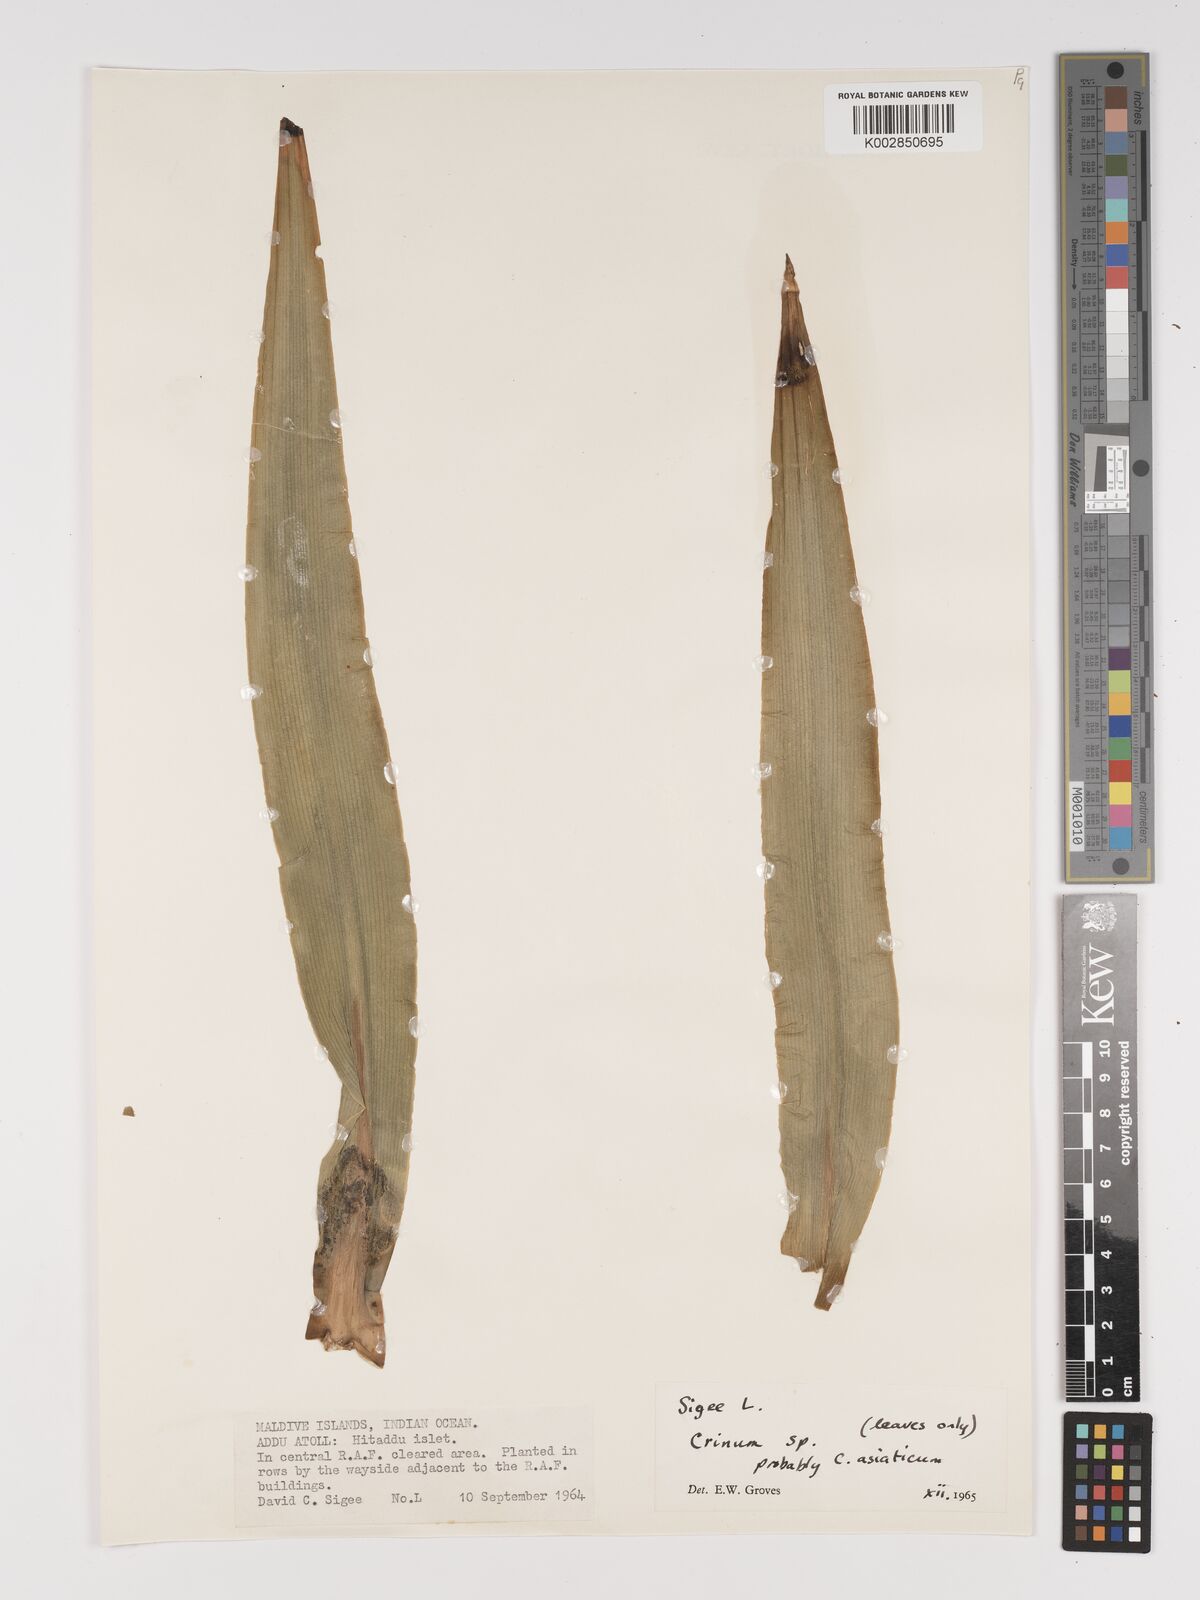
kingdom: Plantae
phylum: Tracheophyta
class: Liliopsida
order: Asparagales
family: Amaryllidaceae
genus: Crinum
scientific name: Crinum
